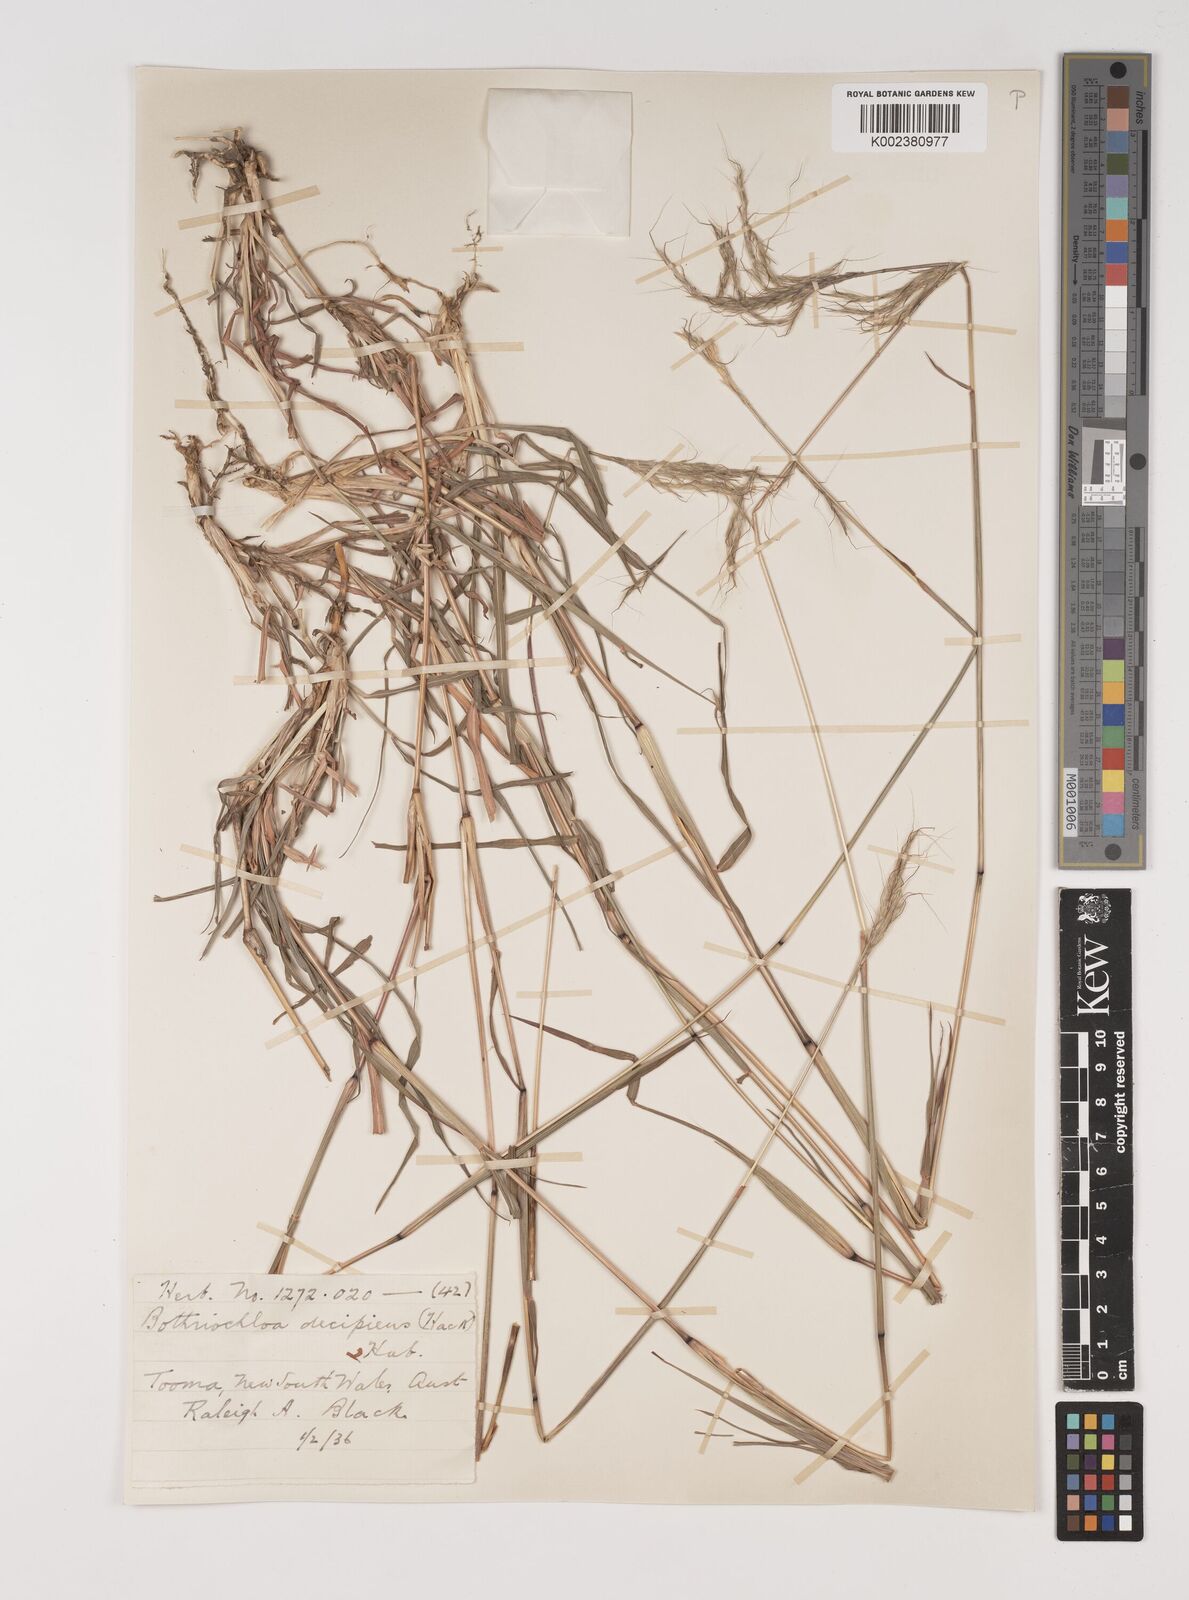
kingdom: Plantae
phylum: Tracheophyta
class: Liliopsida
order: Poales
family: Poaceae
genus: Bothriochloa
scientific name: Bothriochloa decipiens
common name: Pitted-bluegrass
